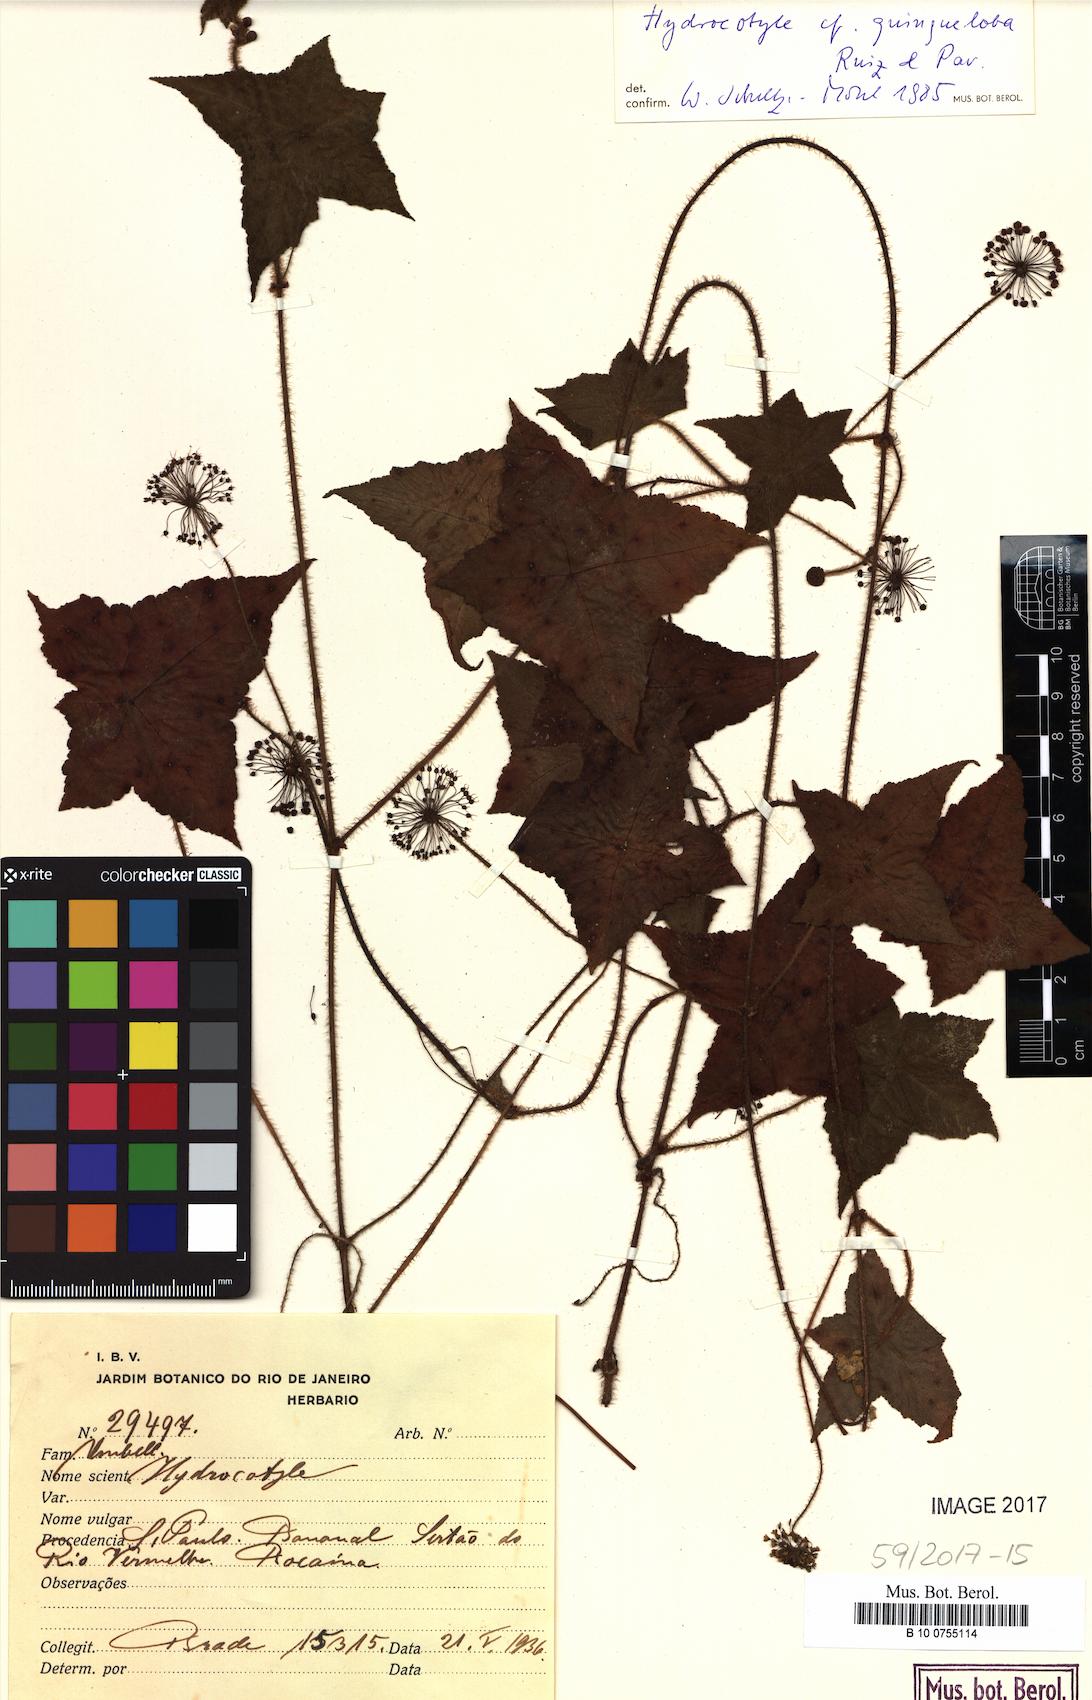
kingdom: Plantae
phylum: Tracheophyta
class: Magnoliopsida
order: Apiales
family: Araliaceae
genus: Hydrocotyle
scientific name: Hydrocotyle quinqueloba
